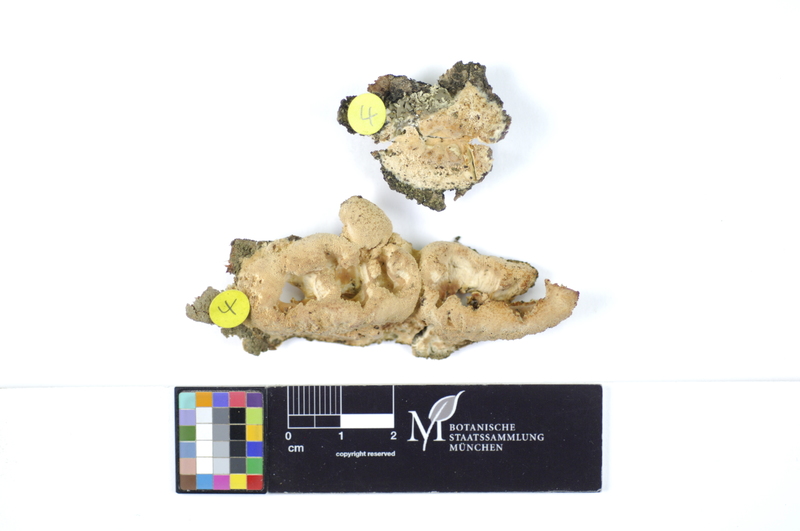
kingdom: Plantae
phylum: Tracheophyta
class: Magnoliopsida
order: Malpighiales
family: Salicaceae
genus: Salix
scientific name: Salix alba
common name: White willow
